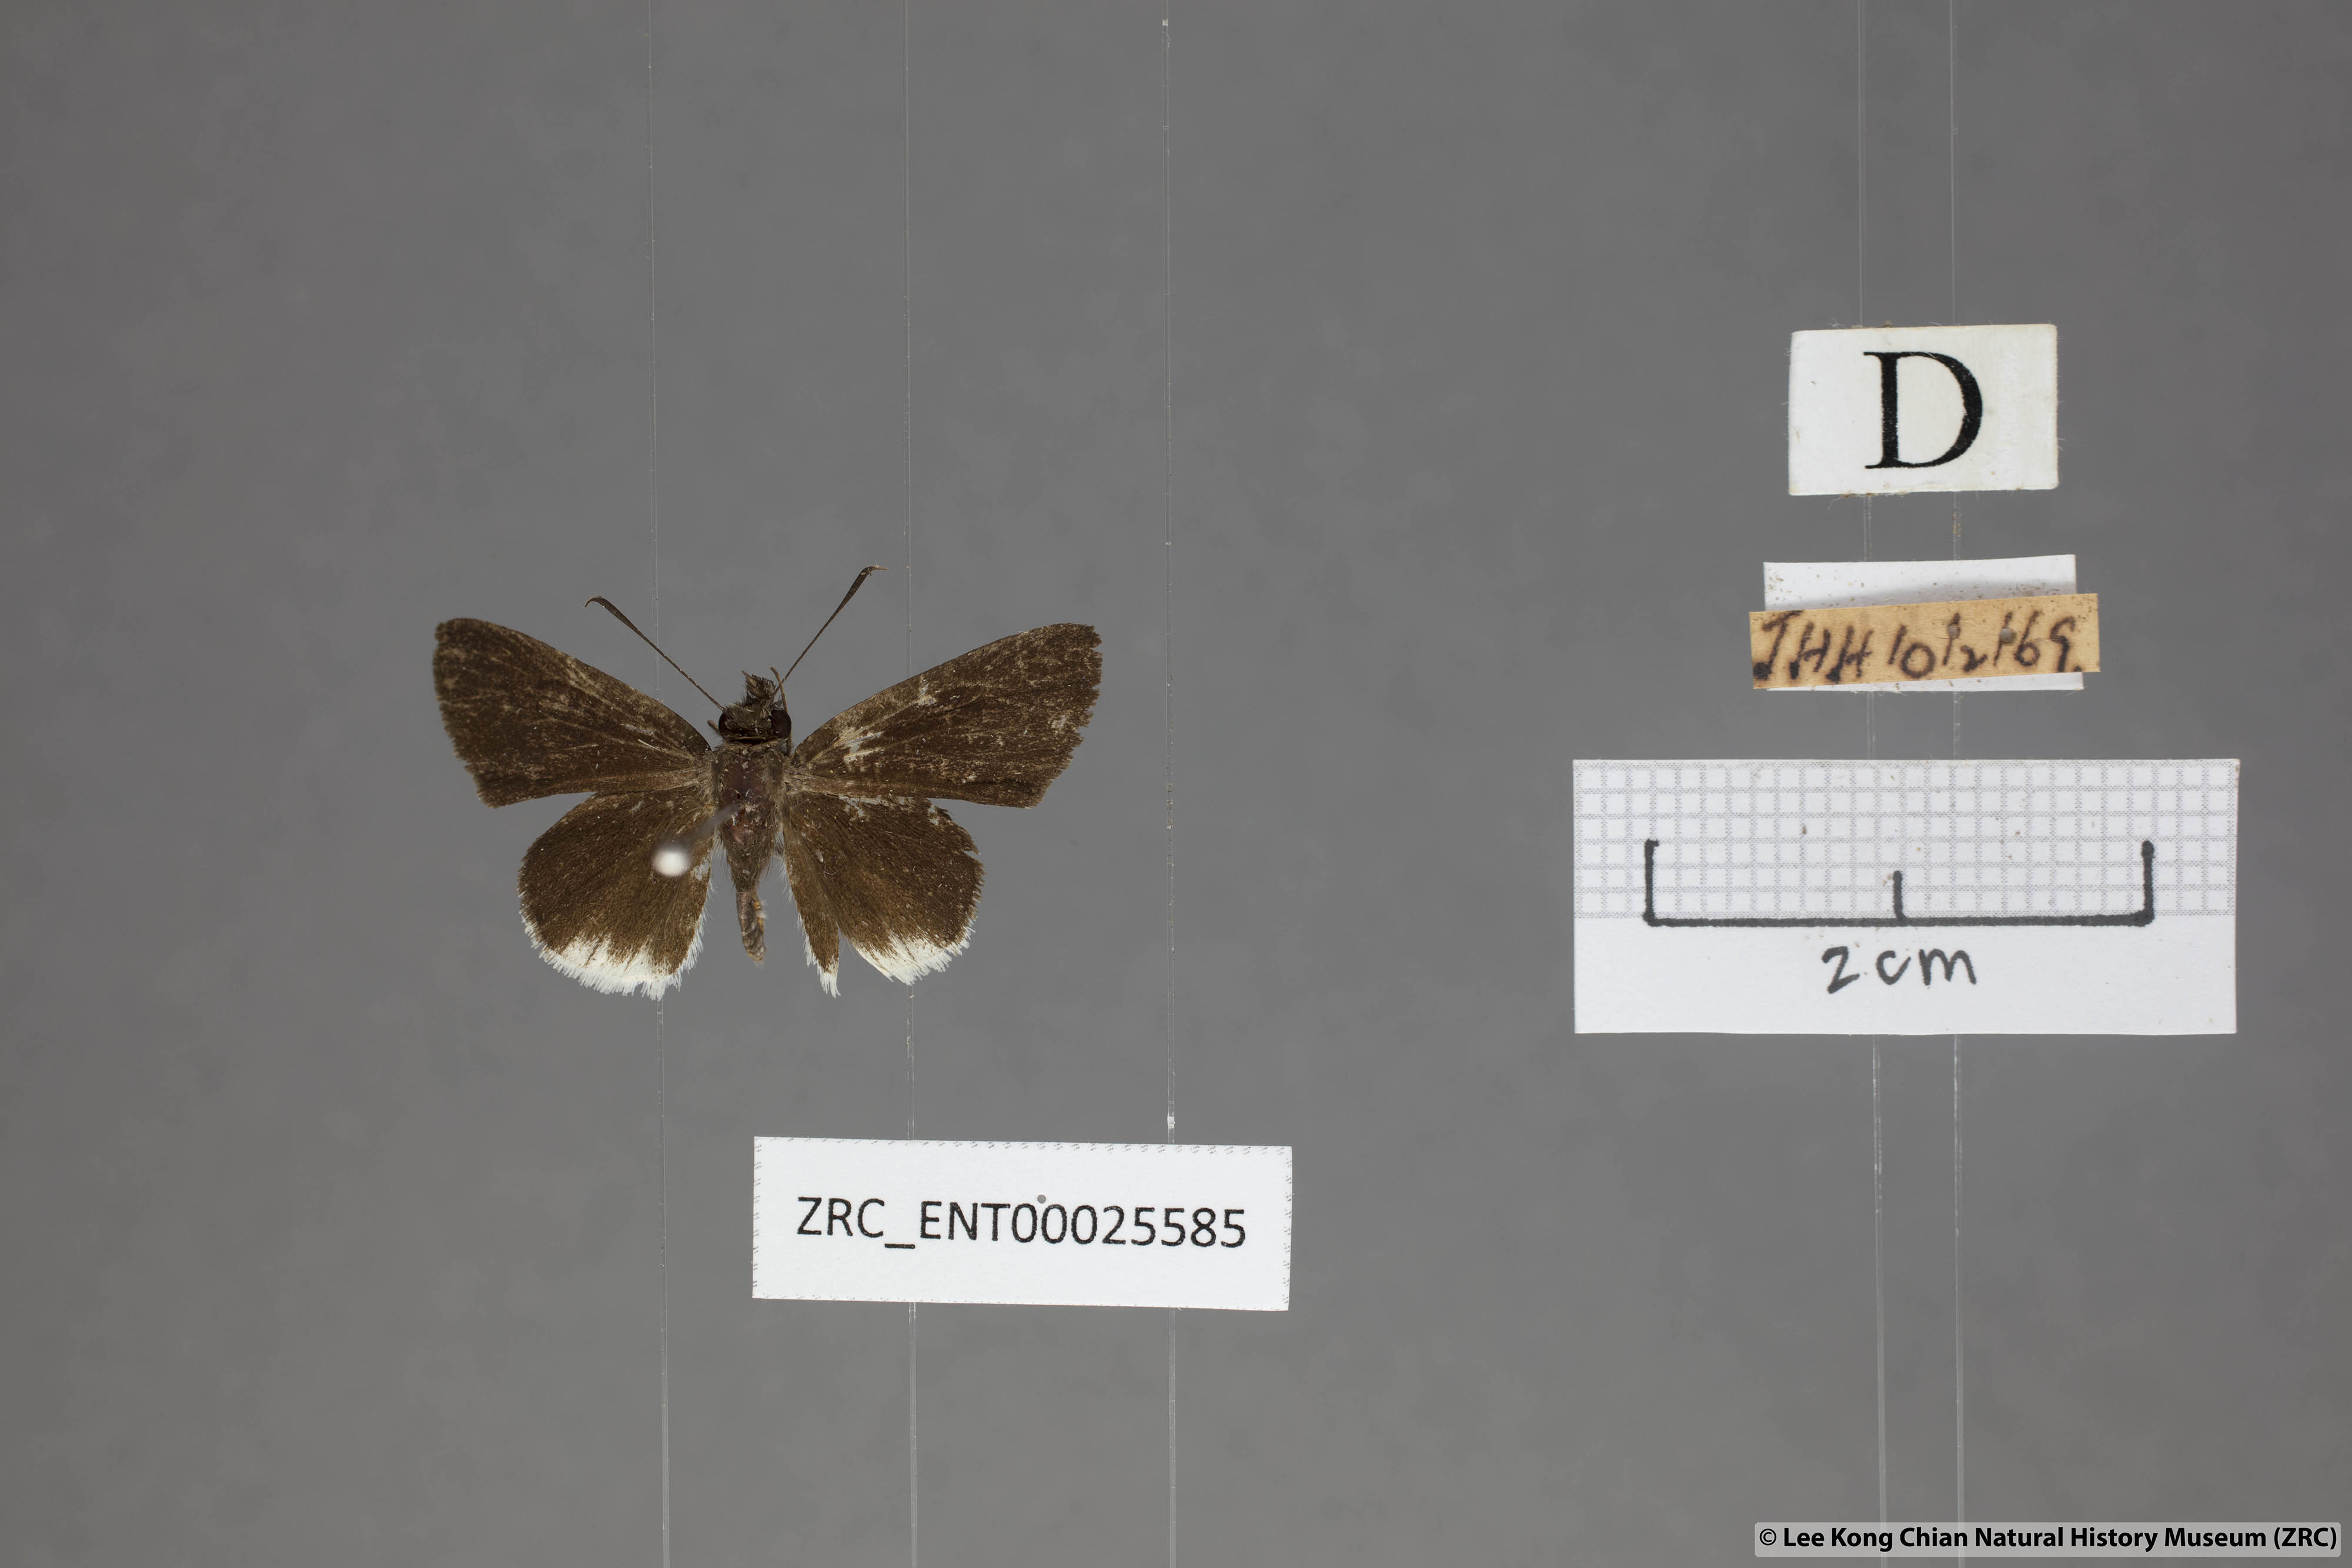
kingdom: Animalia
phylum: Arthropoda
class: Insecta
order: Lepidoptera
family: Hesperiidae
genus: Suastus
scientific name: Suastus everyx
